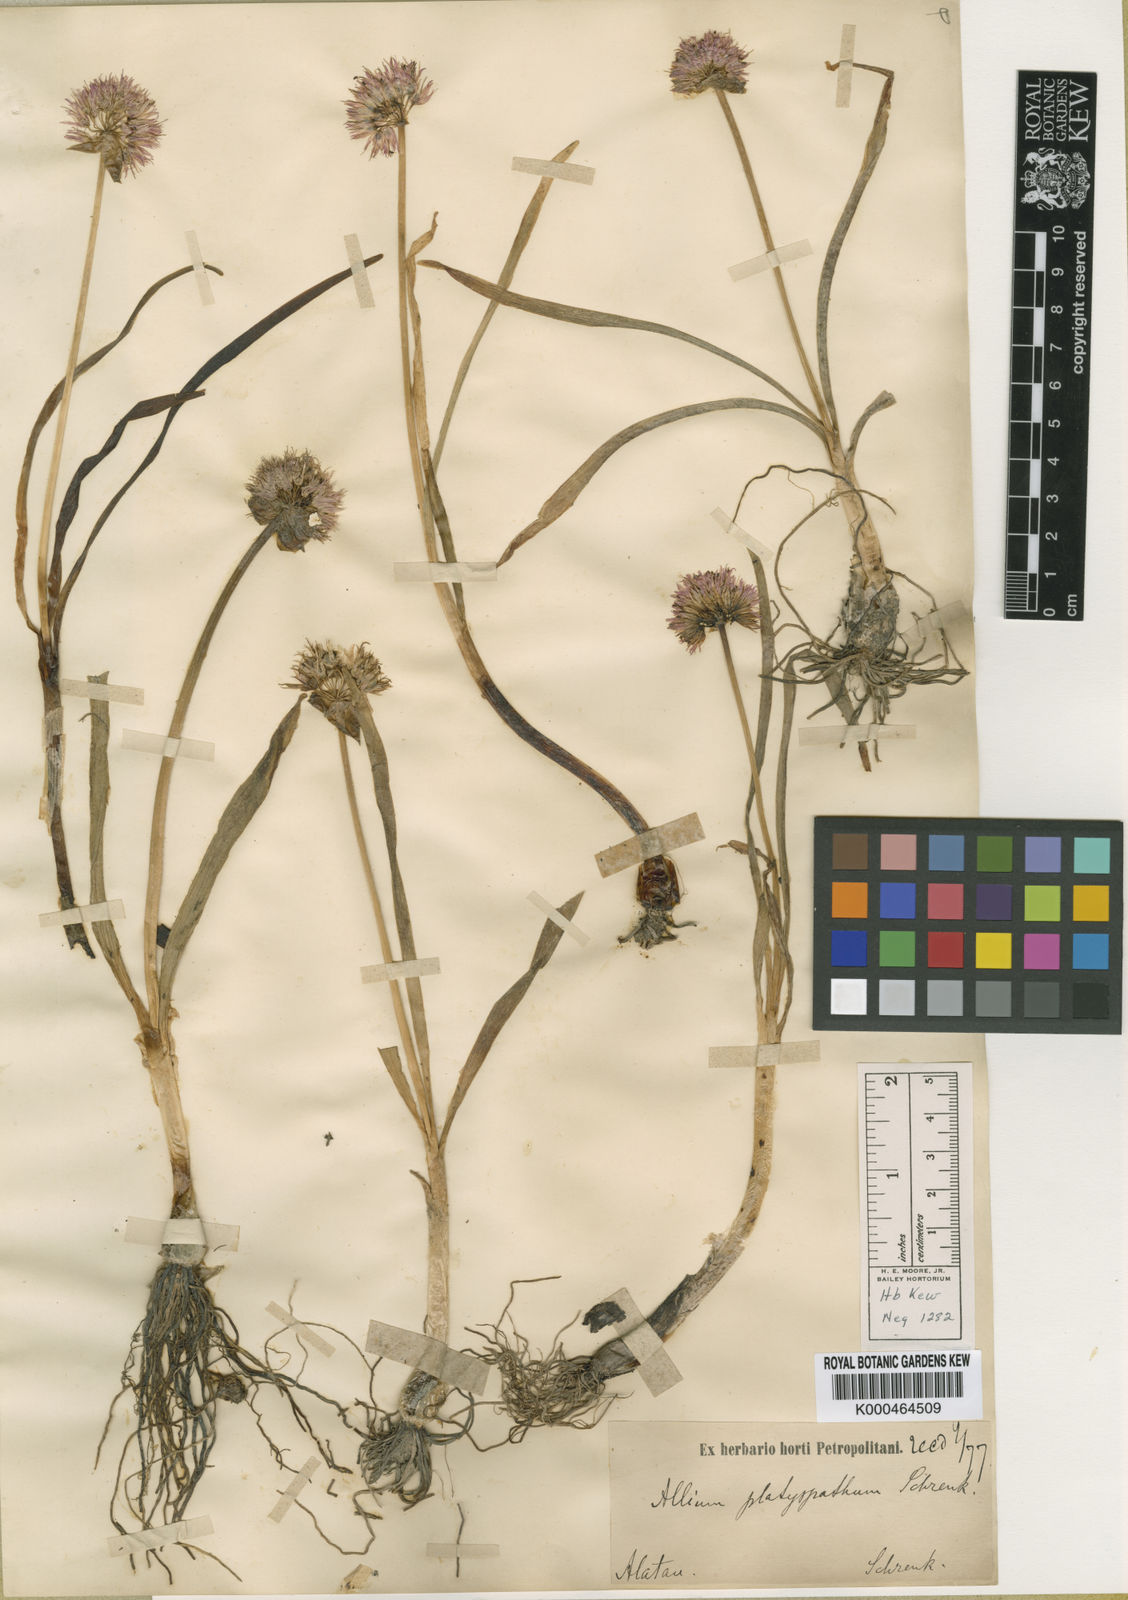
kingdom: Plantae
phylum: Tracheophyta
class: Liliopsida
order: Asparagales
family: Amaryllidaceae
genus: Allium
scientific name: Allium platyspathum
